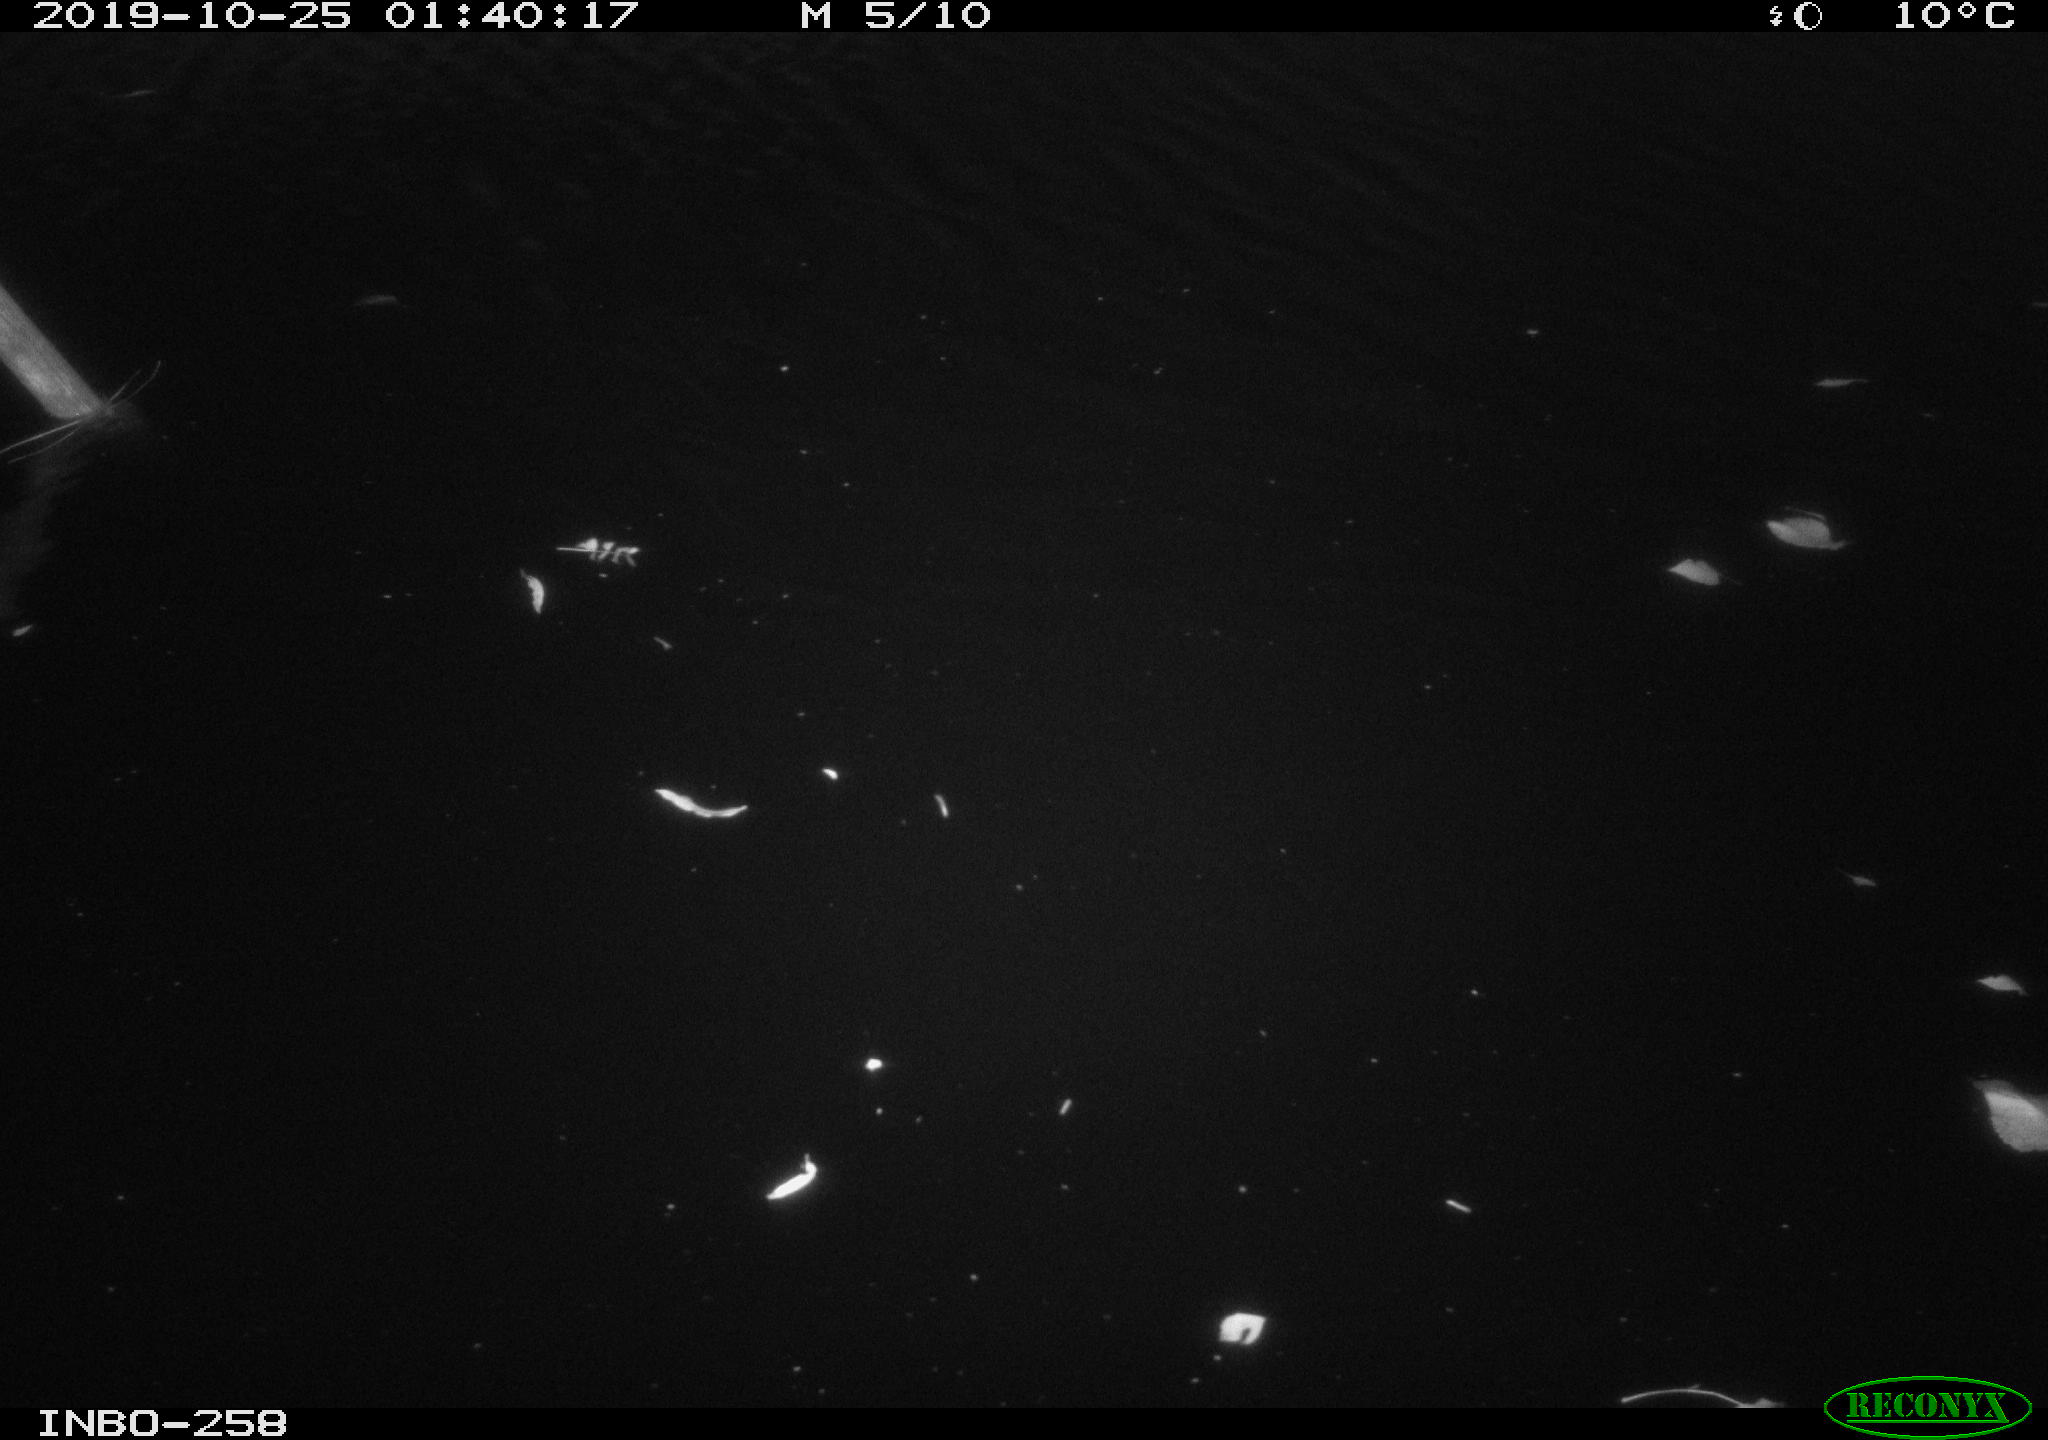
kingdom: Animalia
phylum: Chordata
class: Aves
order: Anseriformes
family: Anatidae
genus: Anas
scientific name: Anas platyrhynchos
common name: Mallard
